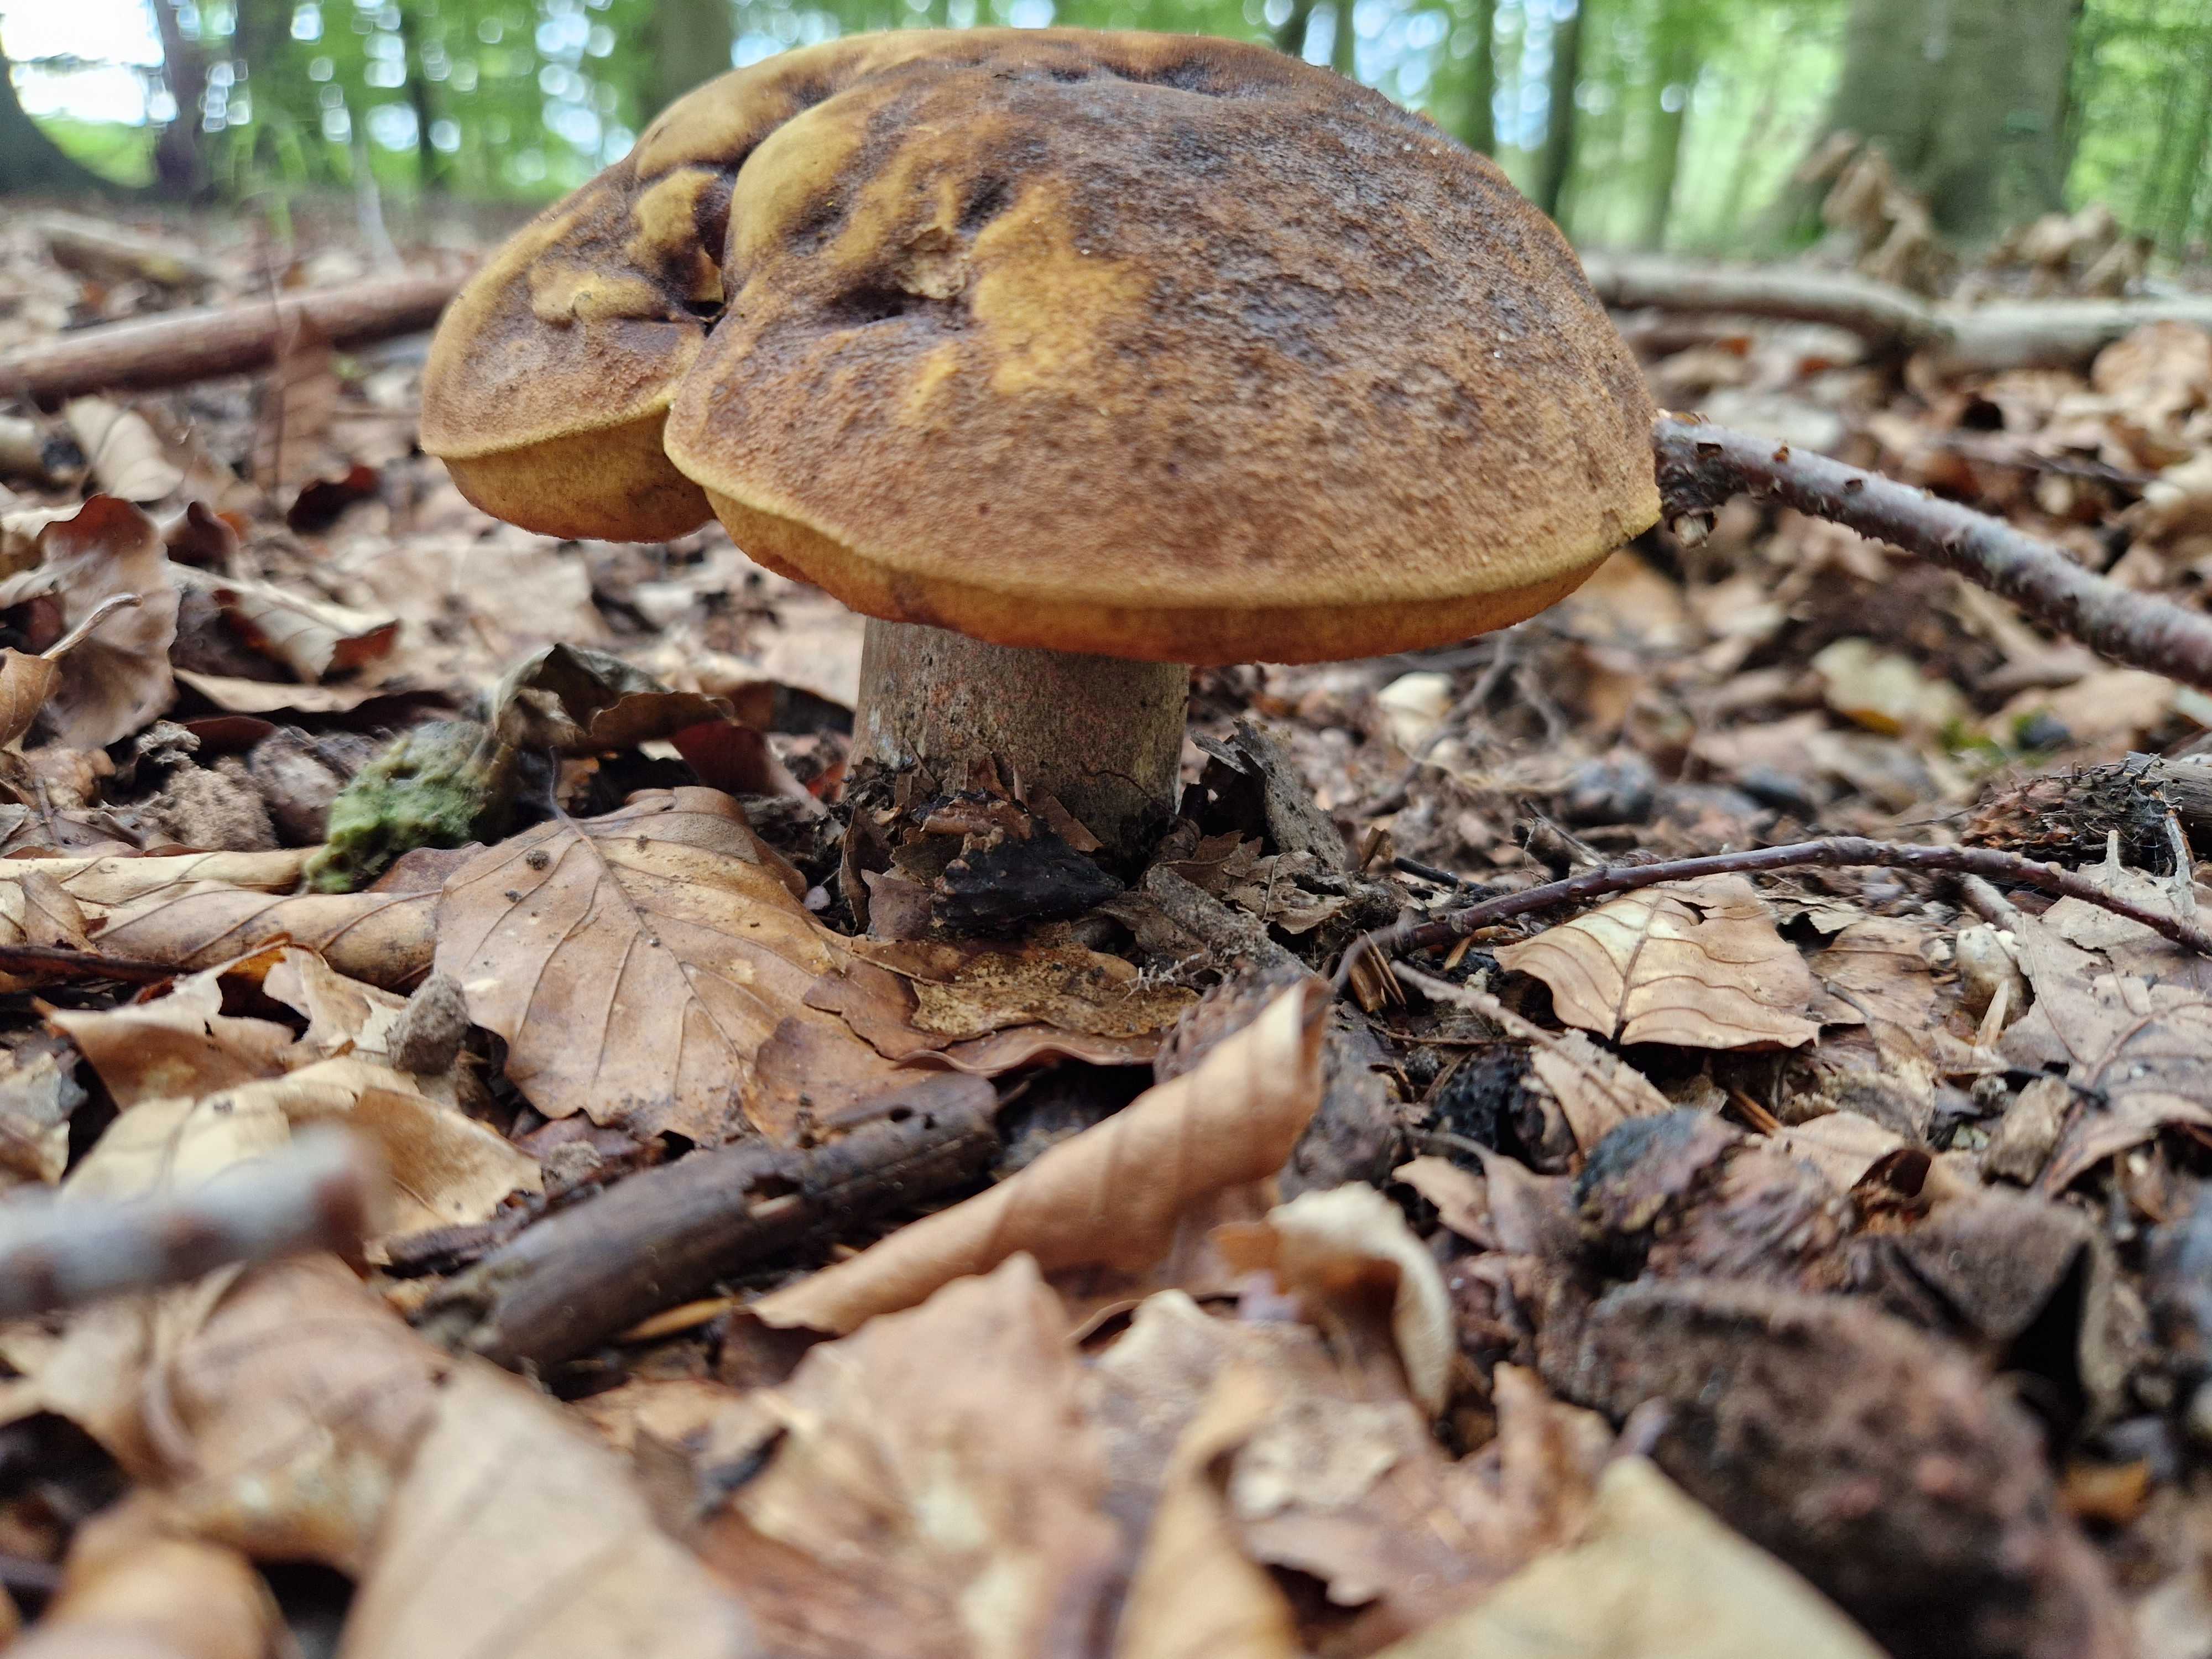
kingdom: Fungi
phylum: Basidiomycota
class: Agaricomycetes
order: Boletales
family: Boletaceae
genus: Neoboletus
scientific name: Neoboletus
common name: indigorørhat
